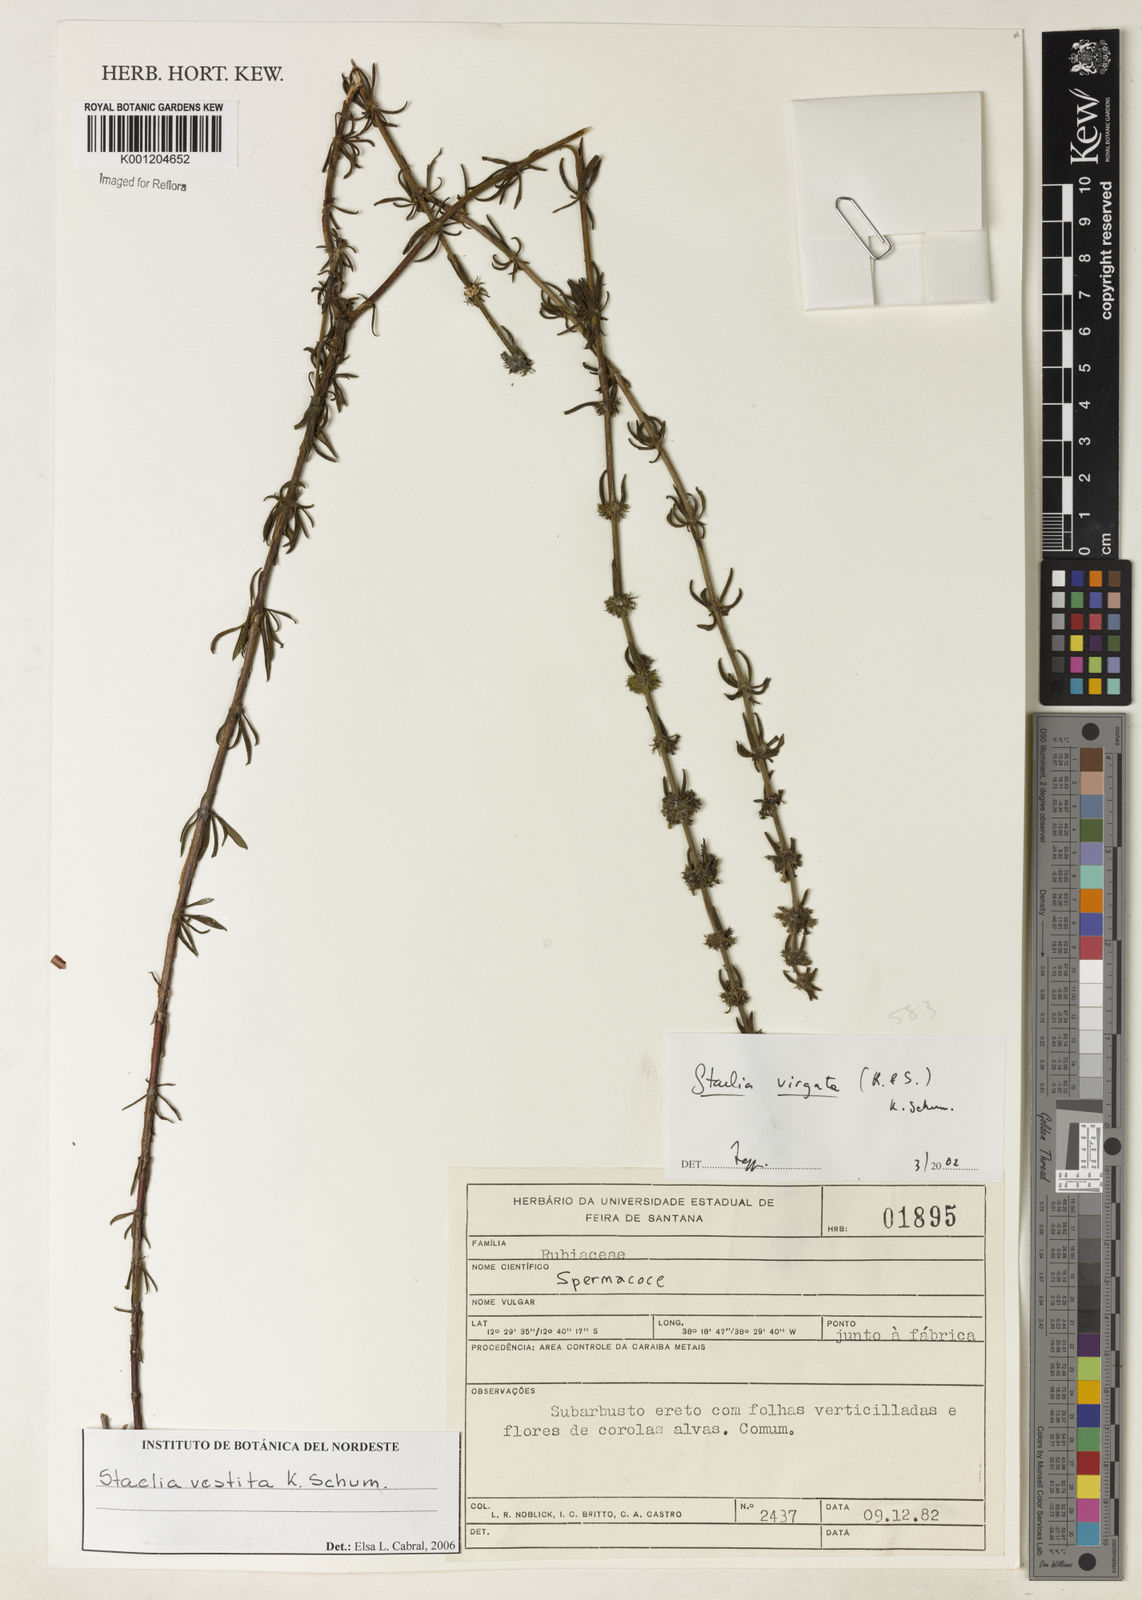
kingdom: Plantae
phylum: Tracheophyta
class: Magnoliopsida
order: Gentianales
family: Rubiaceae
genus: Staelia
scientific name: Staelia vestita
